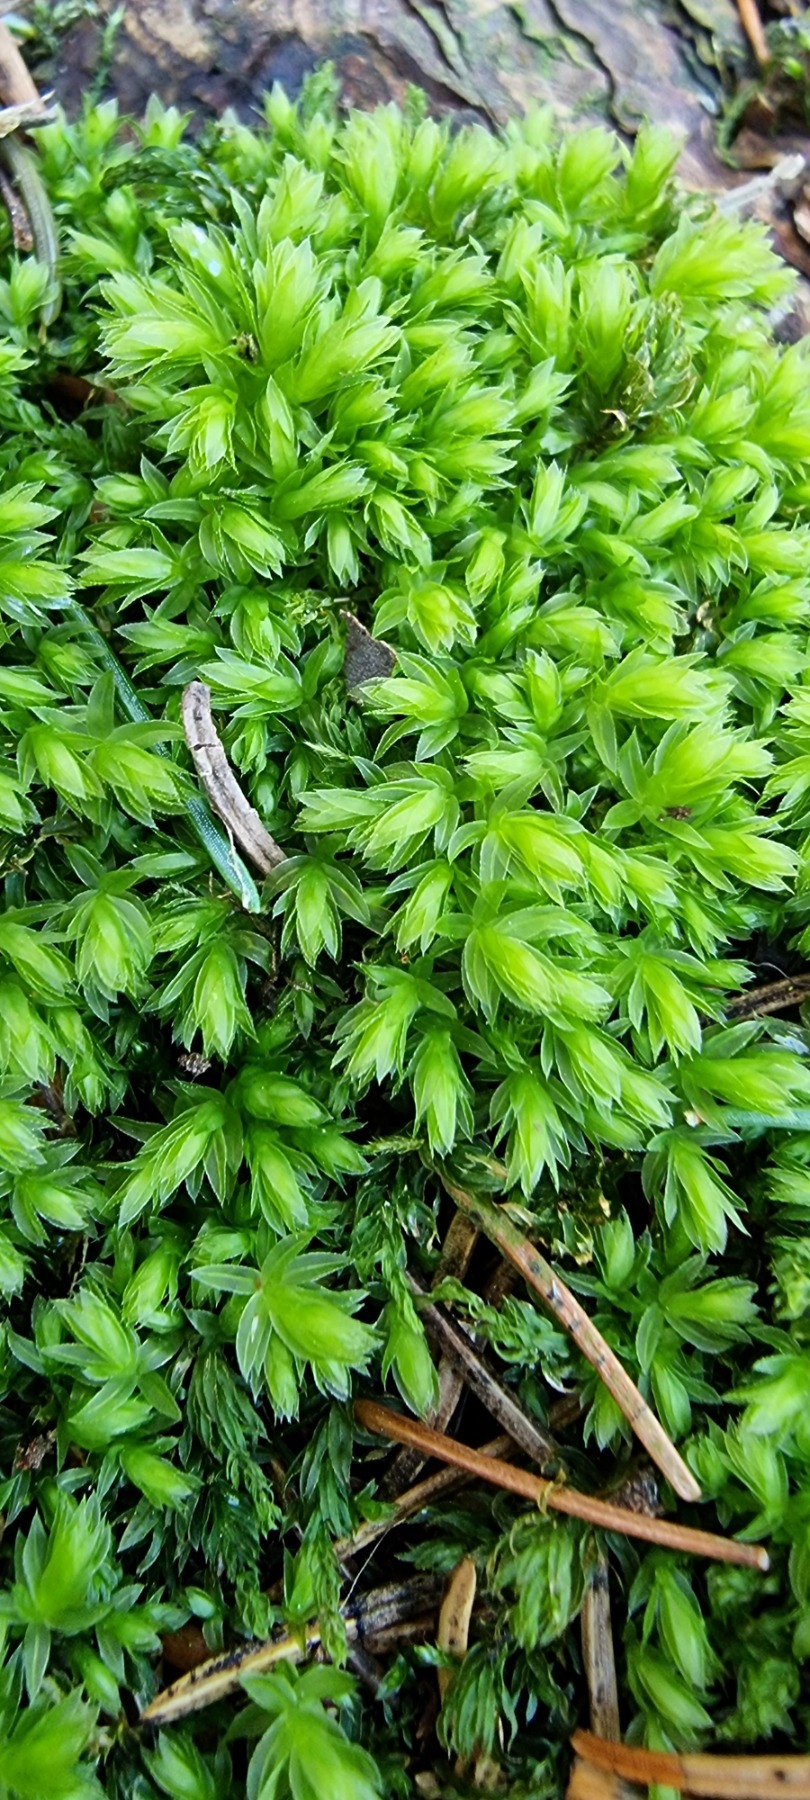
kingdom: Plantae
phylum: Bryophyta
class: Bryopsida
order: Bryales
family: Mniaceae
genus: Mnium
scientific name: Mnium hornum
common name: Brunfiltet stjernemos
